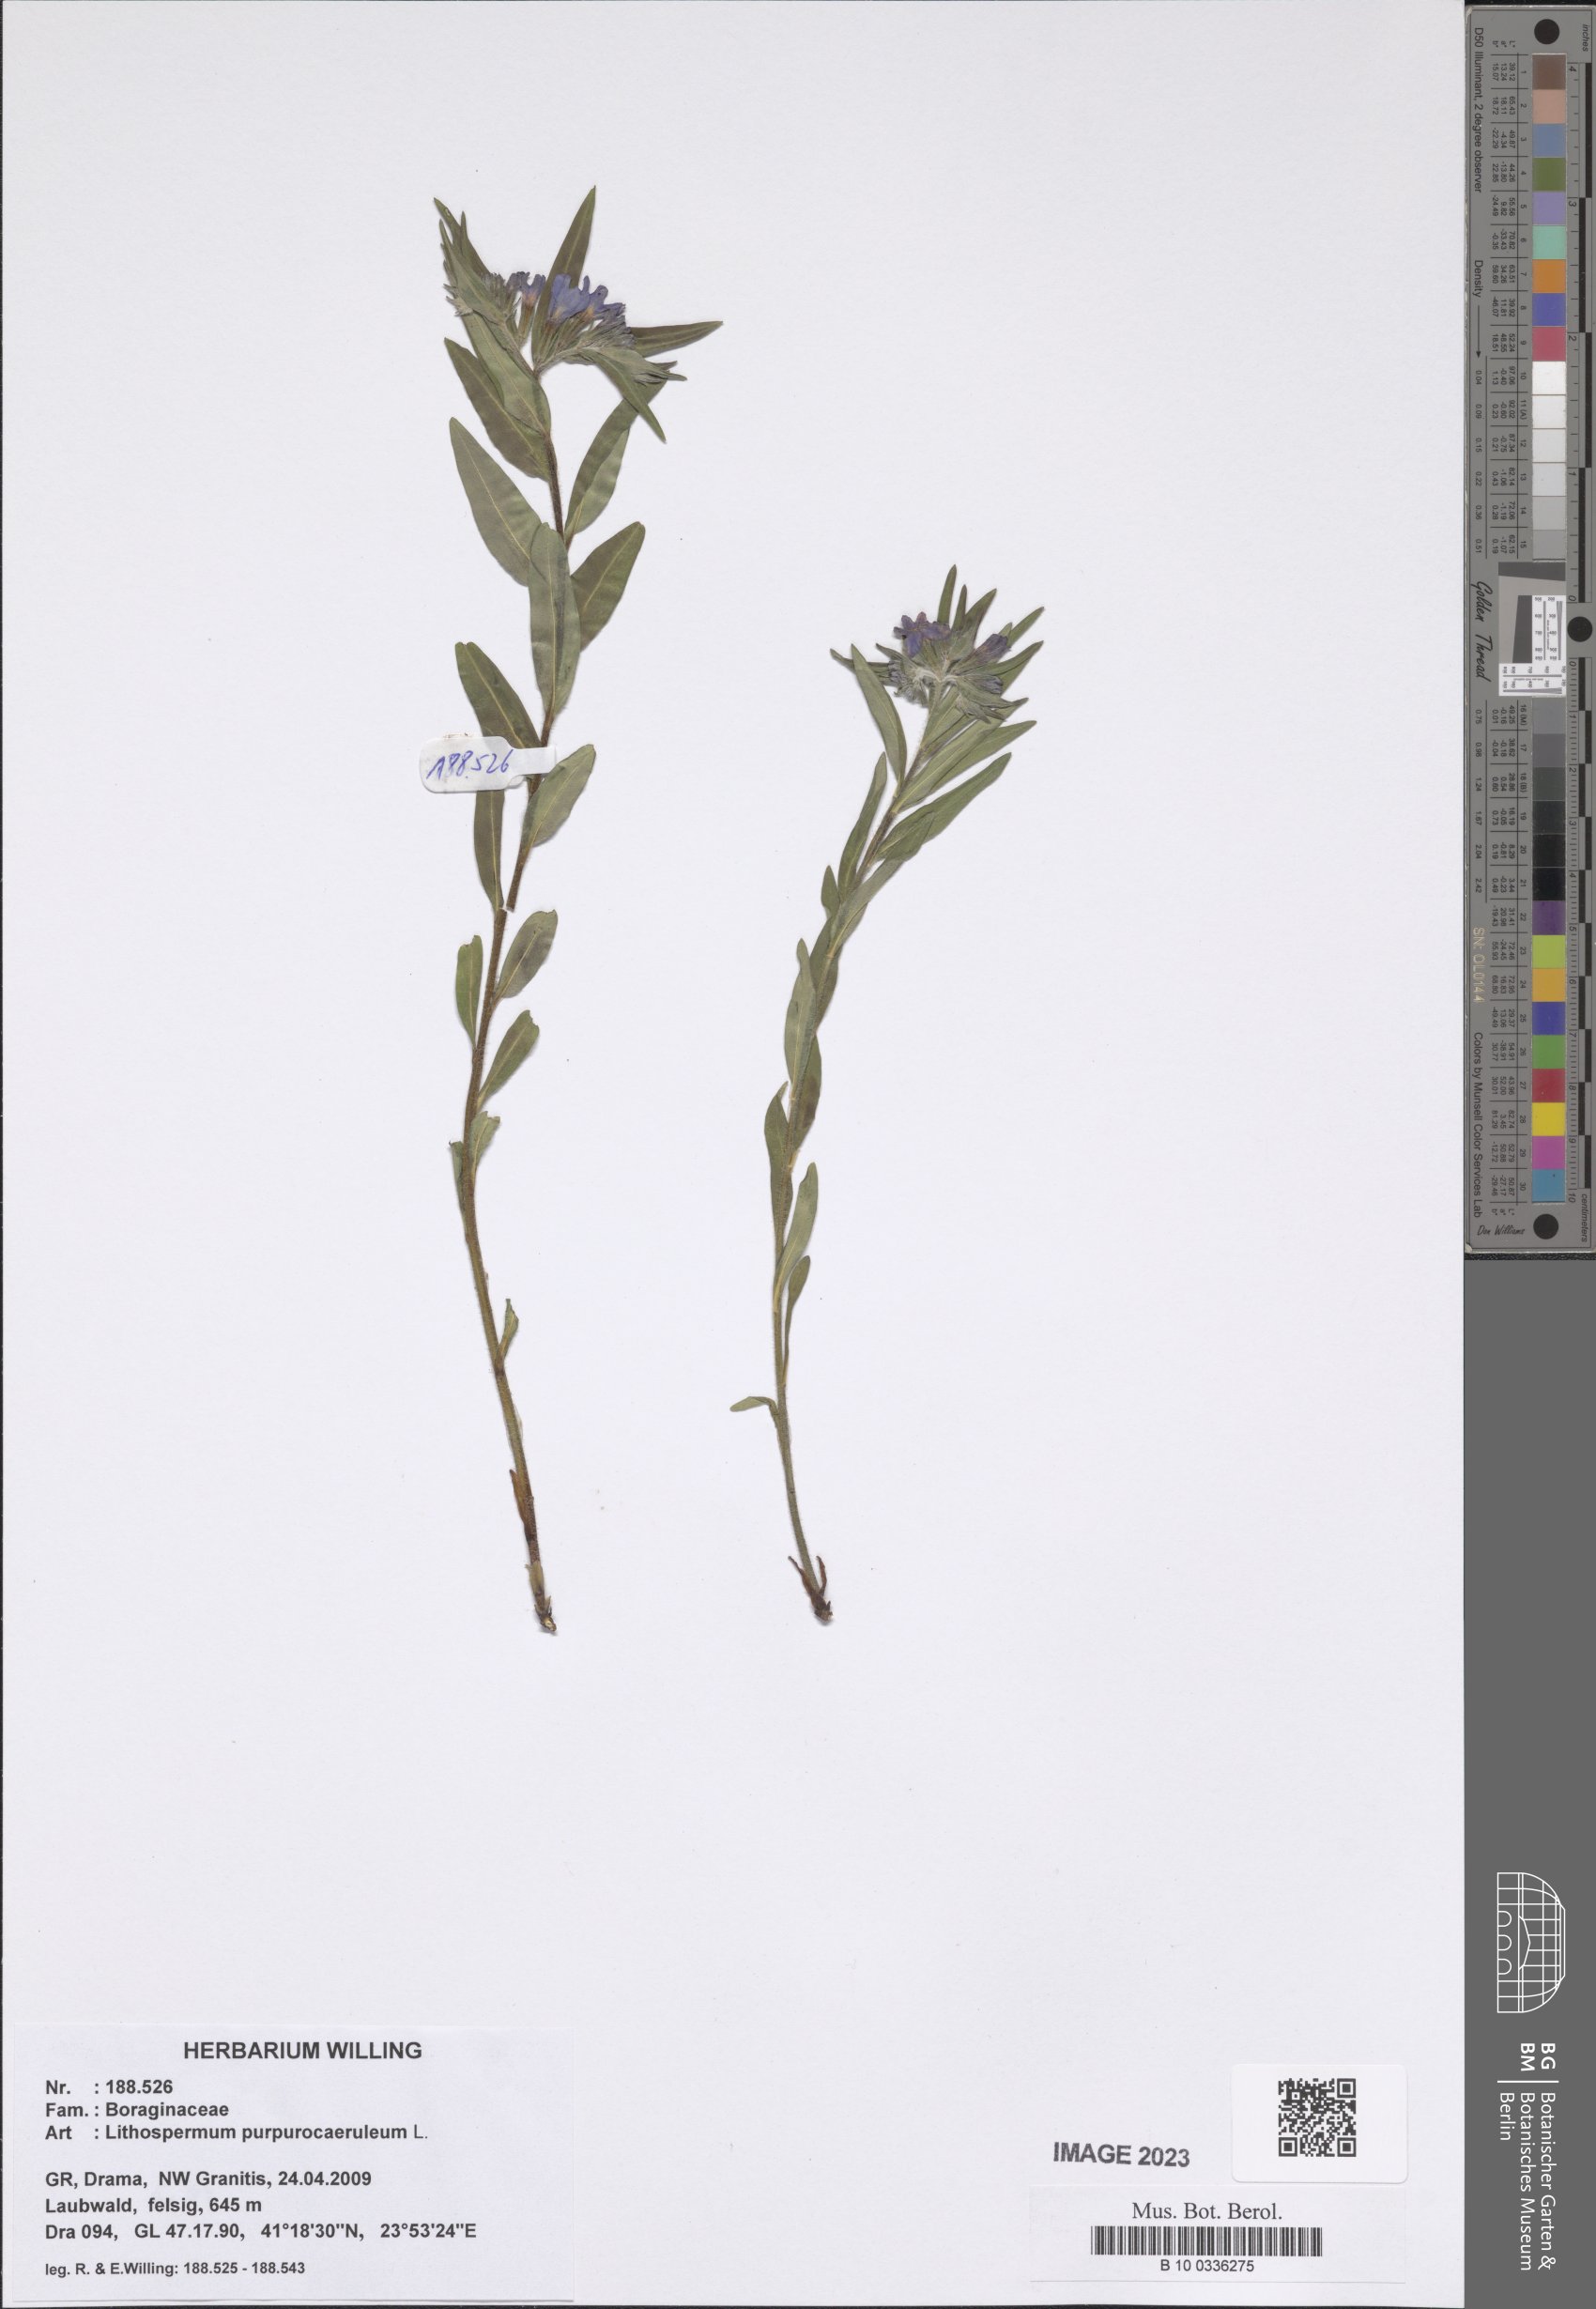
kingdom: Plantae
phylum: Tracheophyta
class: Magnoliopsida
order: Boraginales
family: Boraginaceae
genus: Aegonychon
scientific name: Aegonychon purpurocaeruleum
